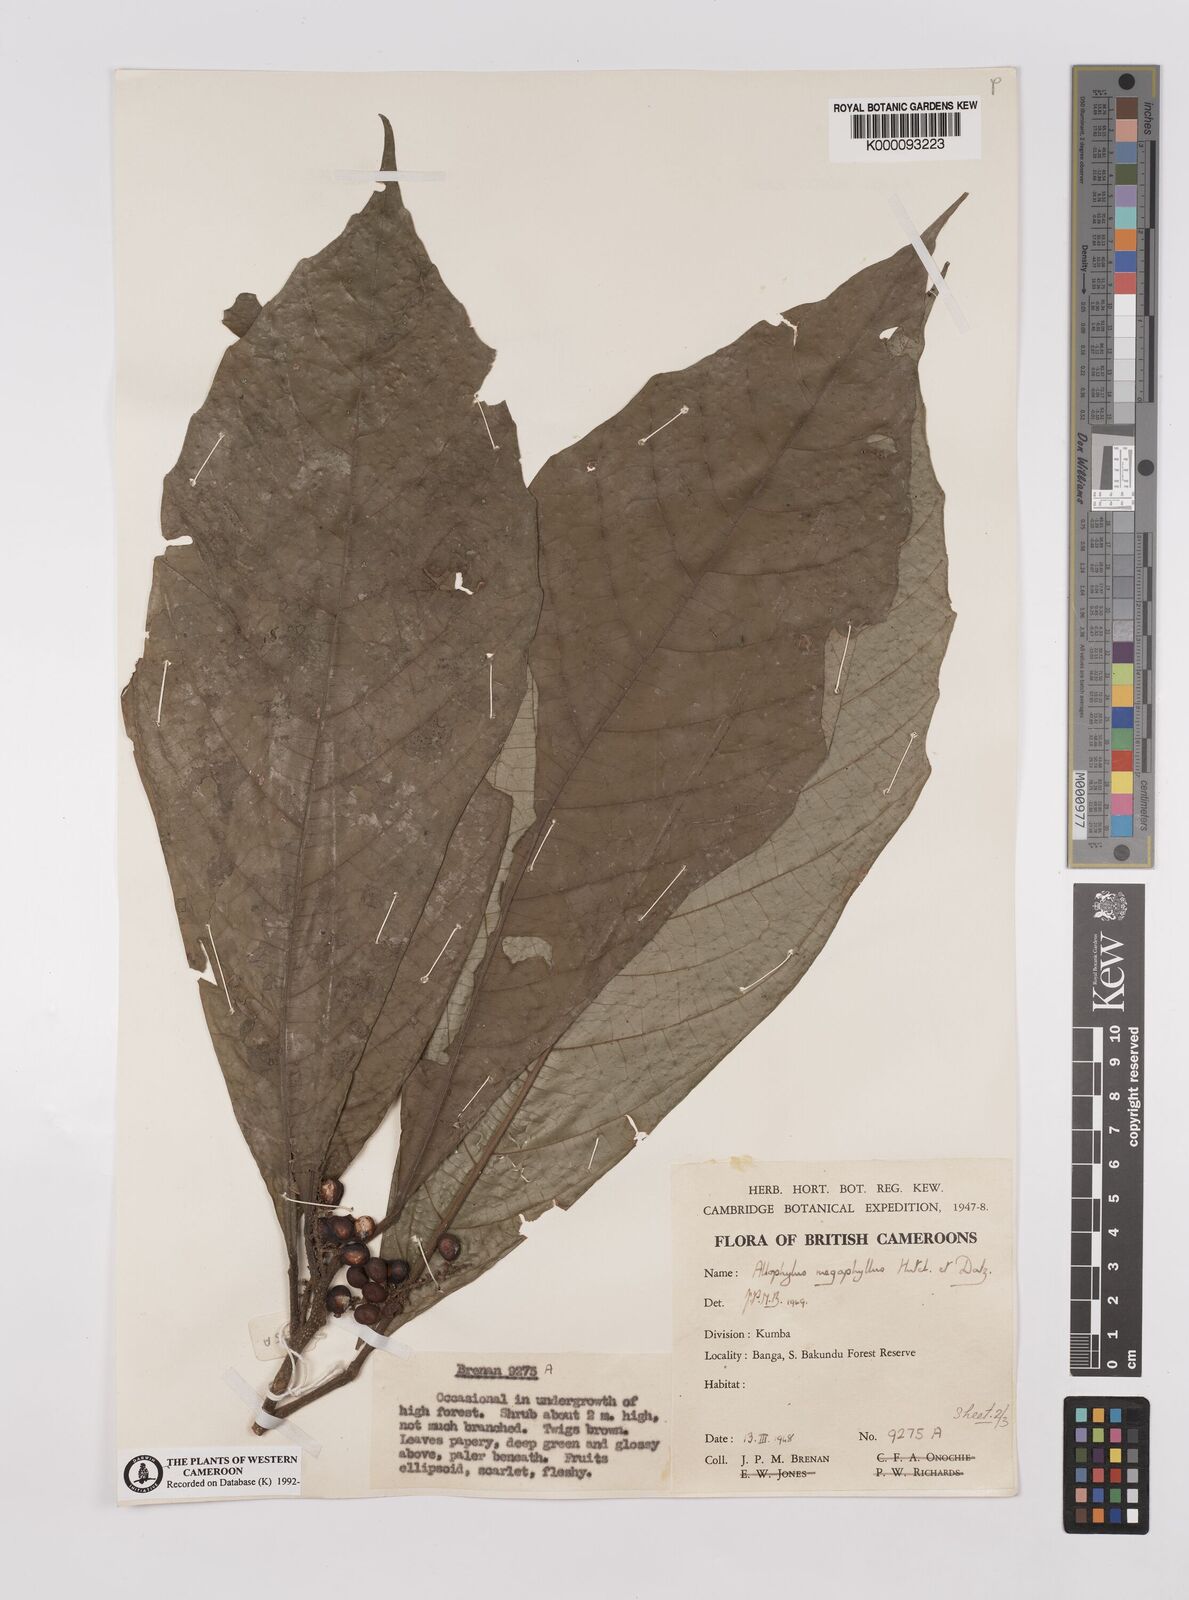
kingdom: Plantae
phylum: Tracheophyta
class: Magnoliopsida
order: Sapindales
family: Sapindaceae
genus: Allophylus
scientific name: Allophylus megaphyllus
